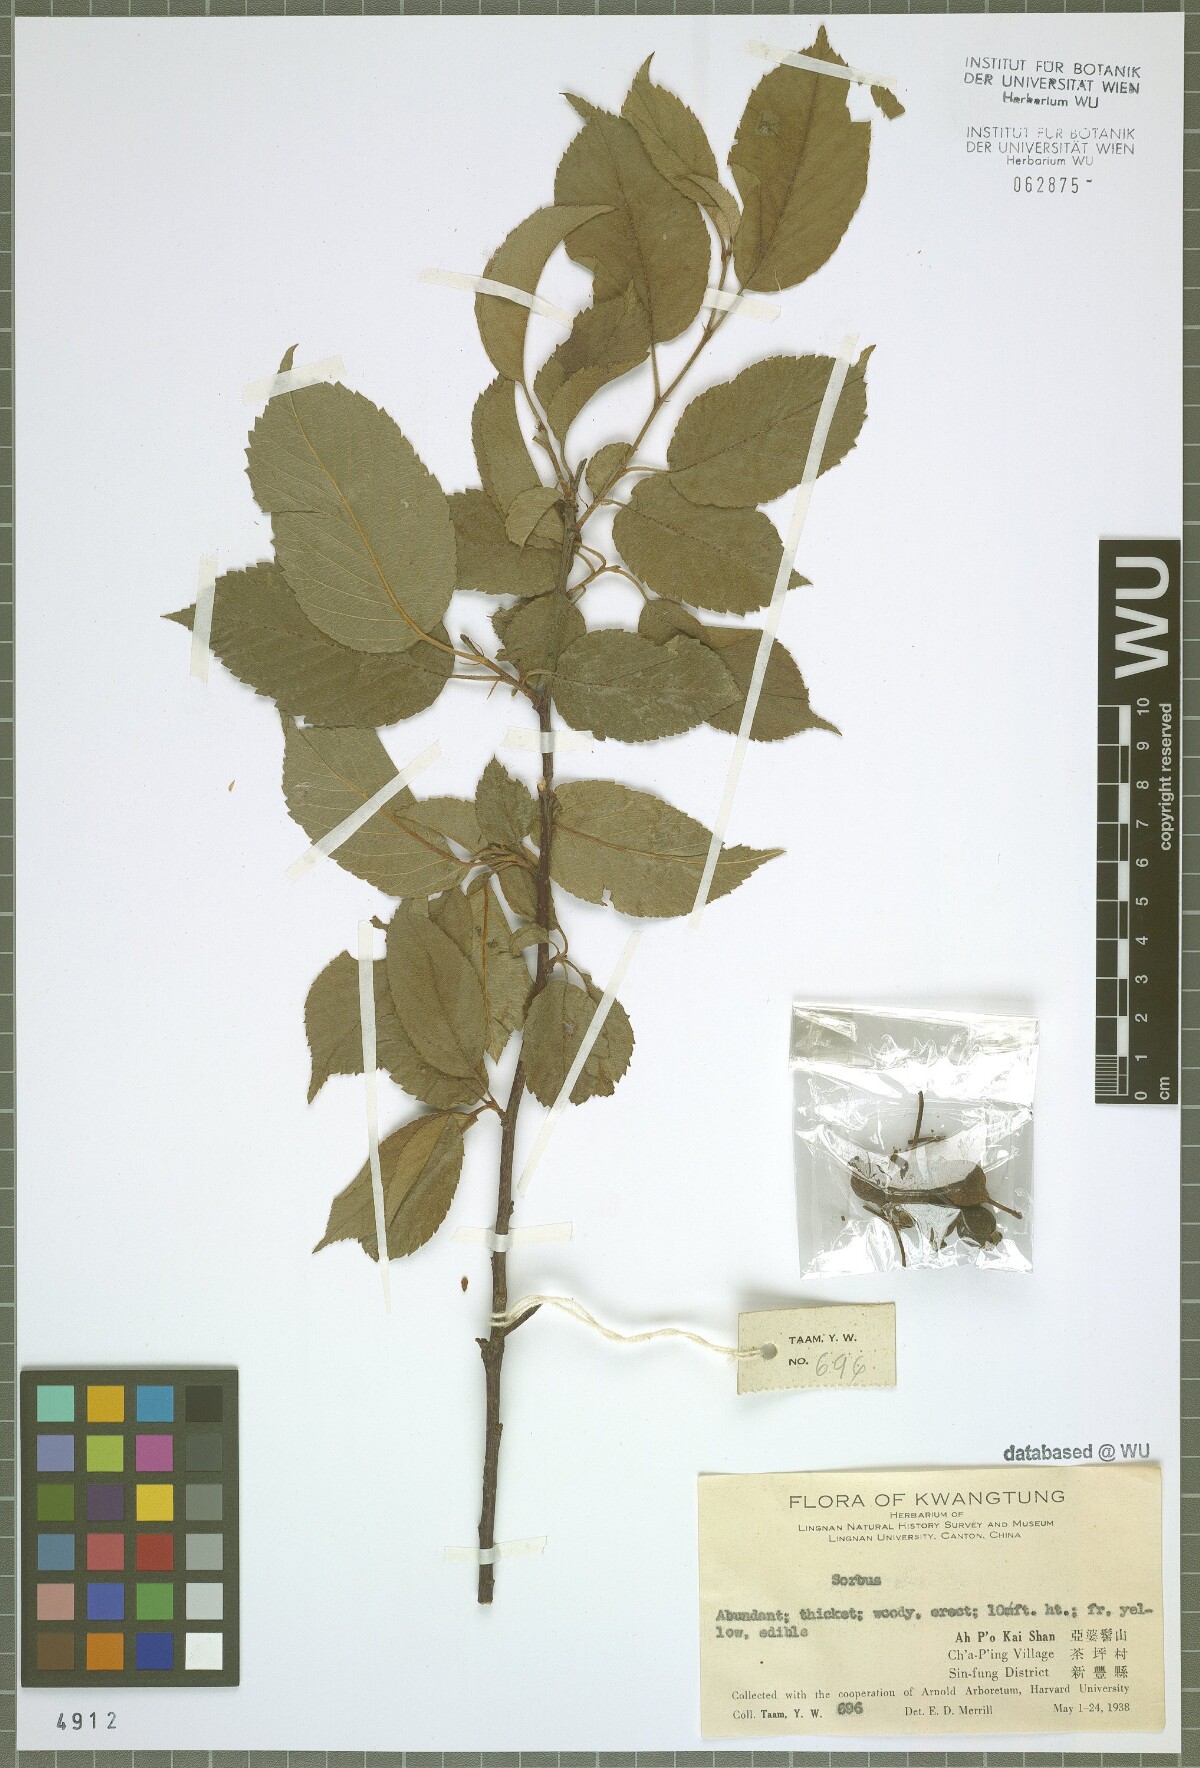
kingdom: Plantae
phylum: Tracheophyta
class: Magnoliopsida
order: Rosales
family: Rosaceae
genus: Sorbus
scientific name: Sorbus
